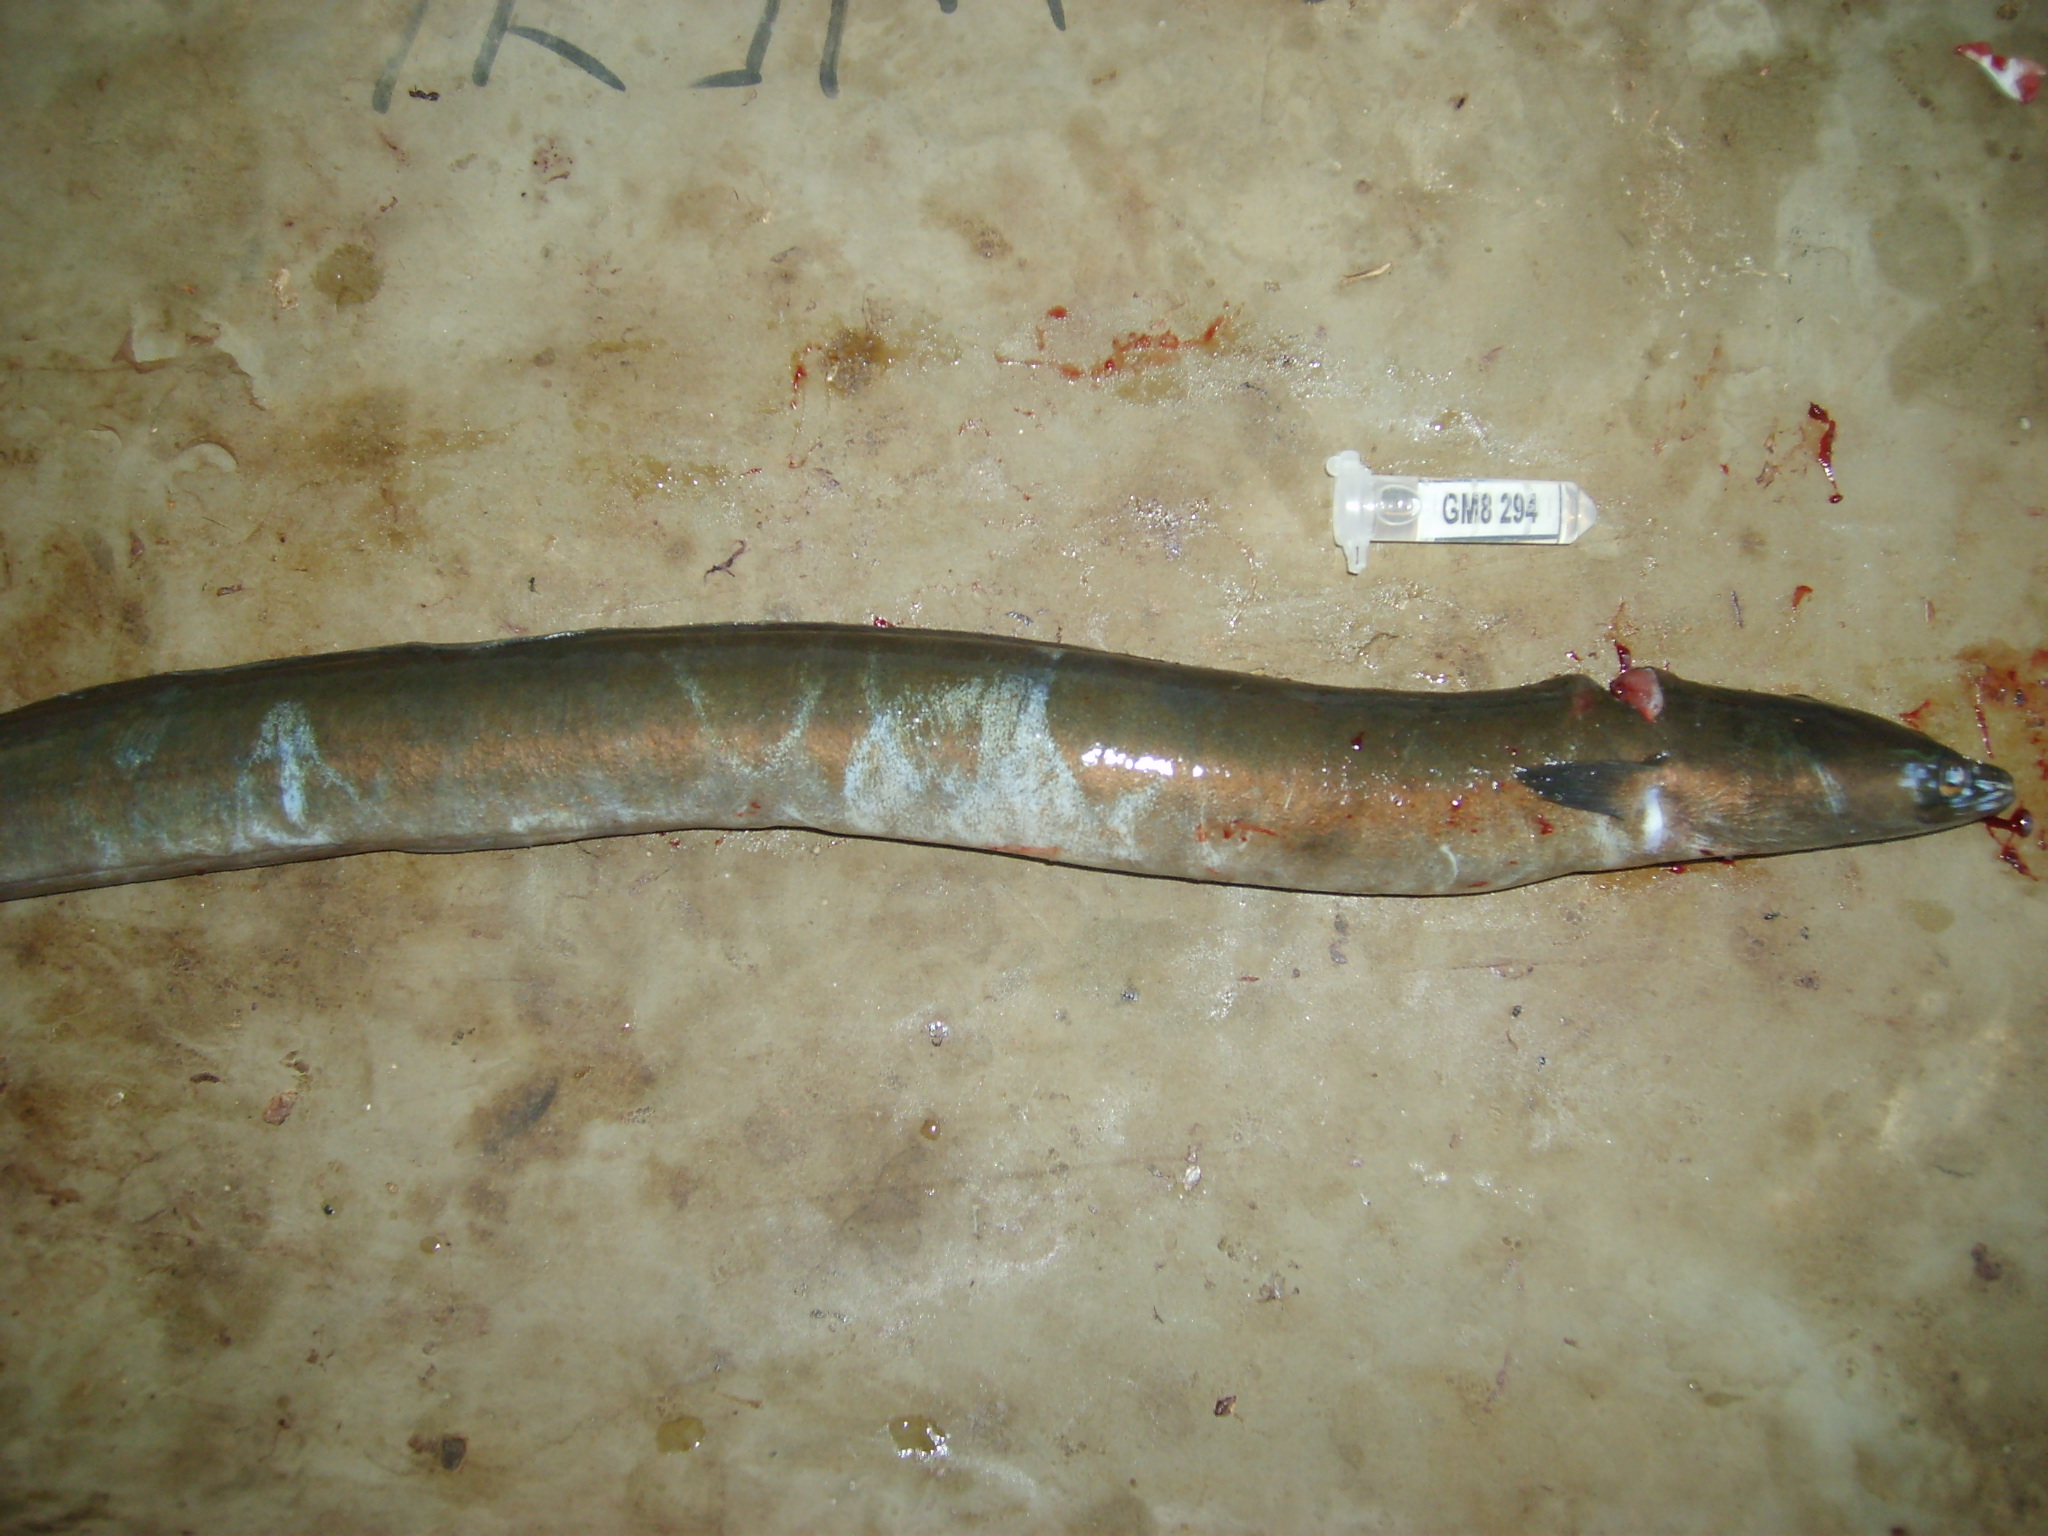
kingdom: Animalia
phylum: Chordata
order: Anguilliformes
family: Anguillidae
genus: Anguilla
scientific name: Anguilla mossambica
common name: African longfin eel
